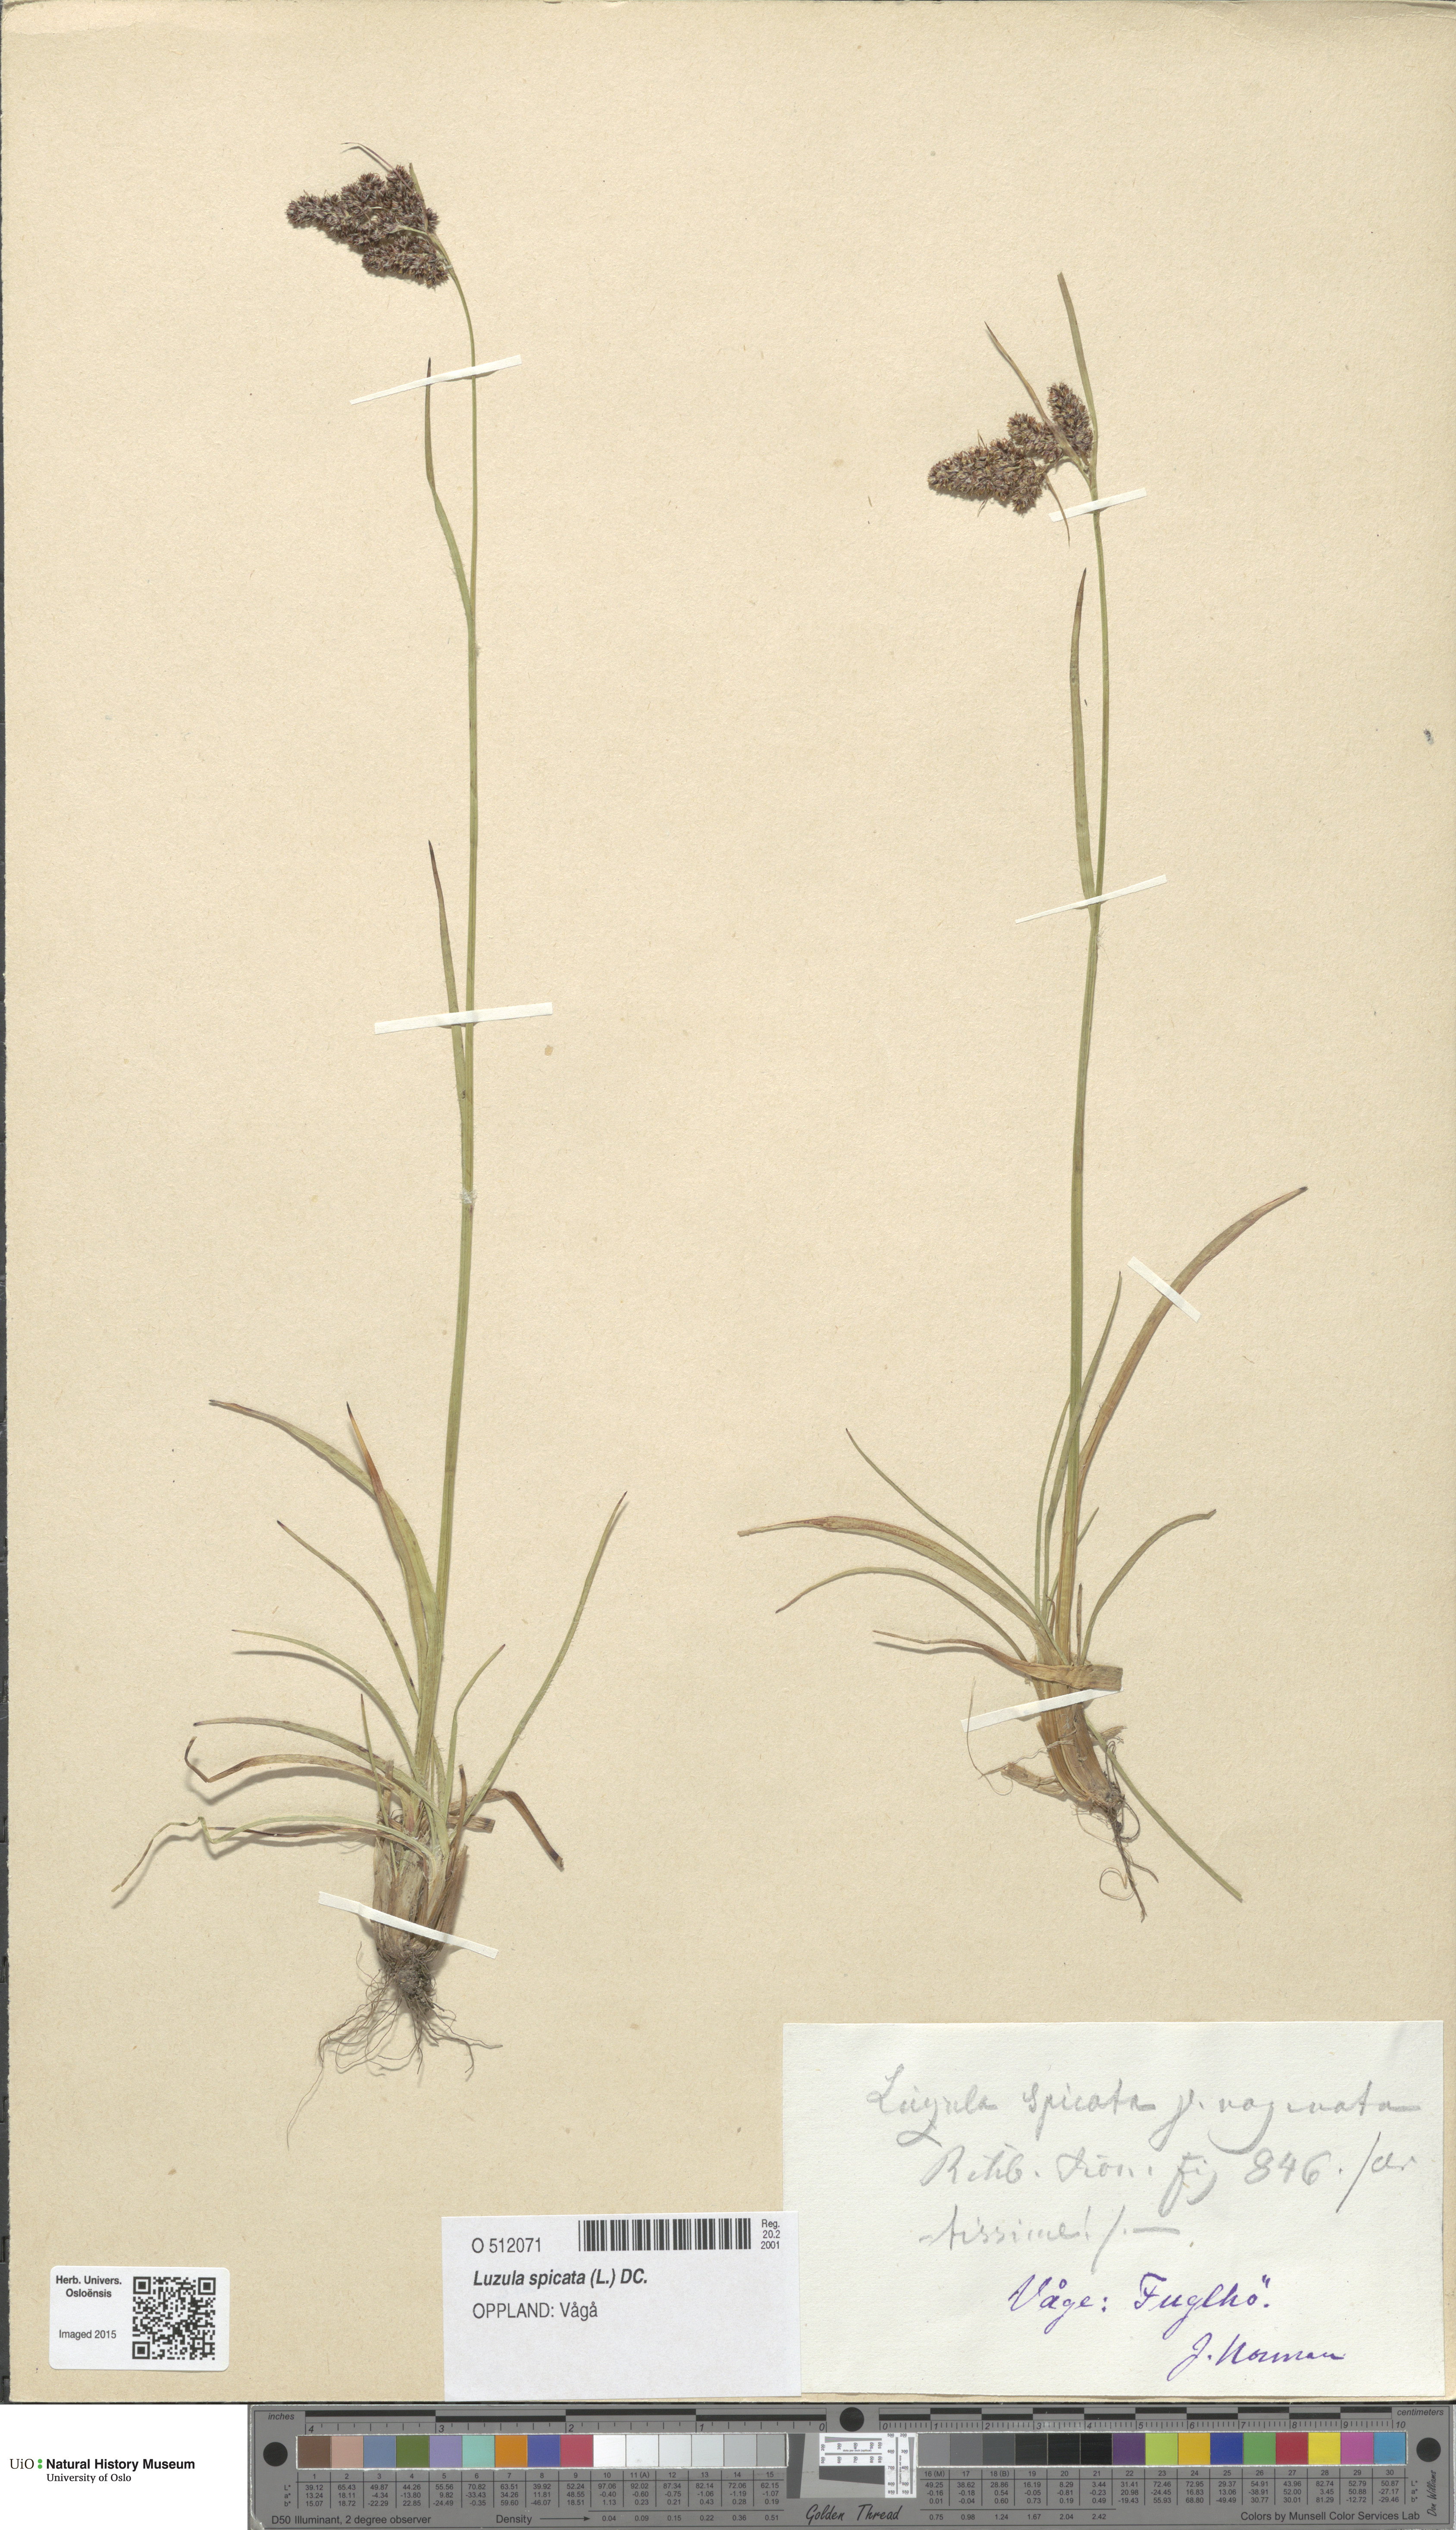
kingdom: Plantae
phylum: Tracheophyta
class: Liliopsida
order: Poales
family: Juncaceae
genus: Luzula
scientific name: Luzula spicata
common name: Spiked wood-rush
